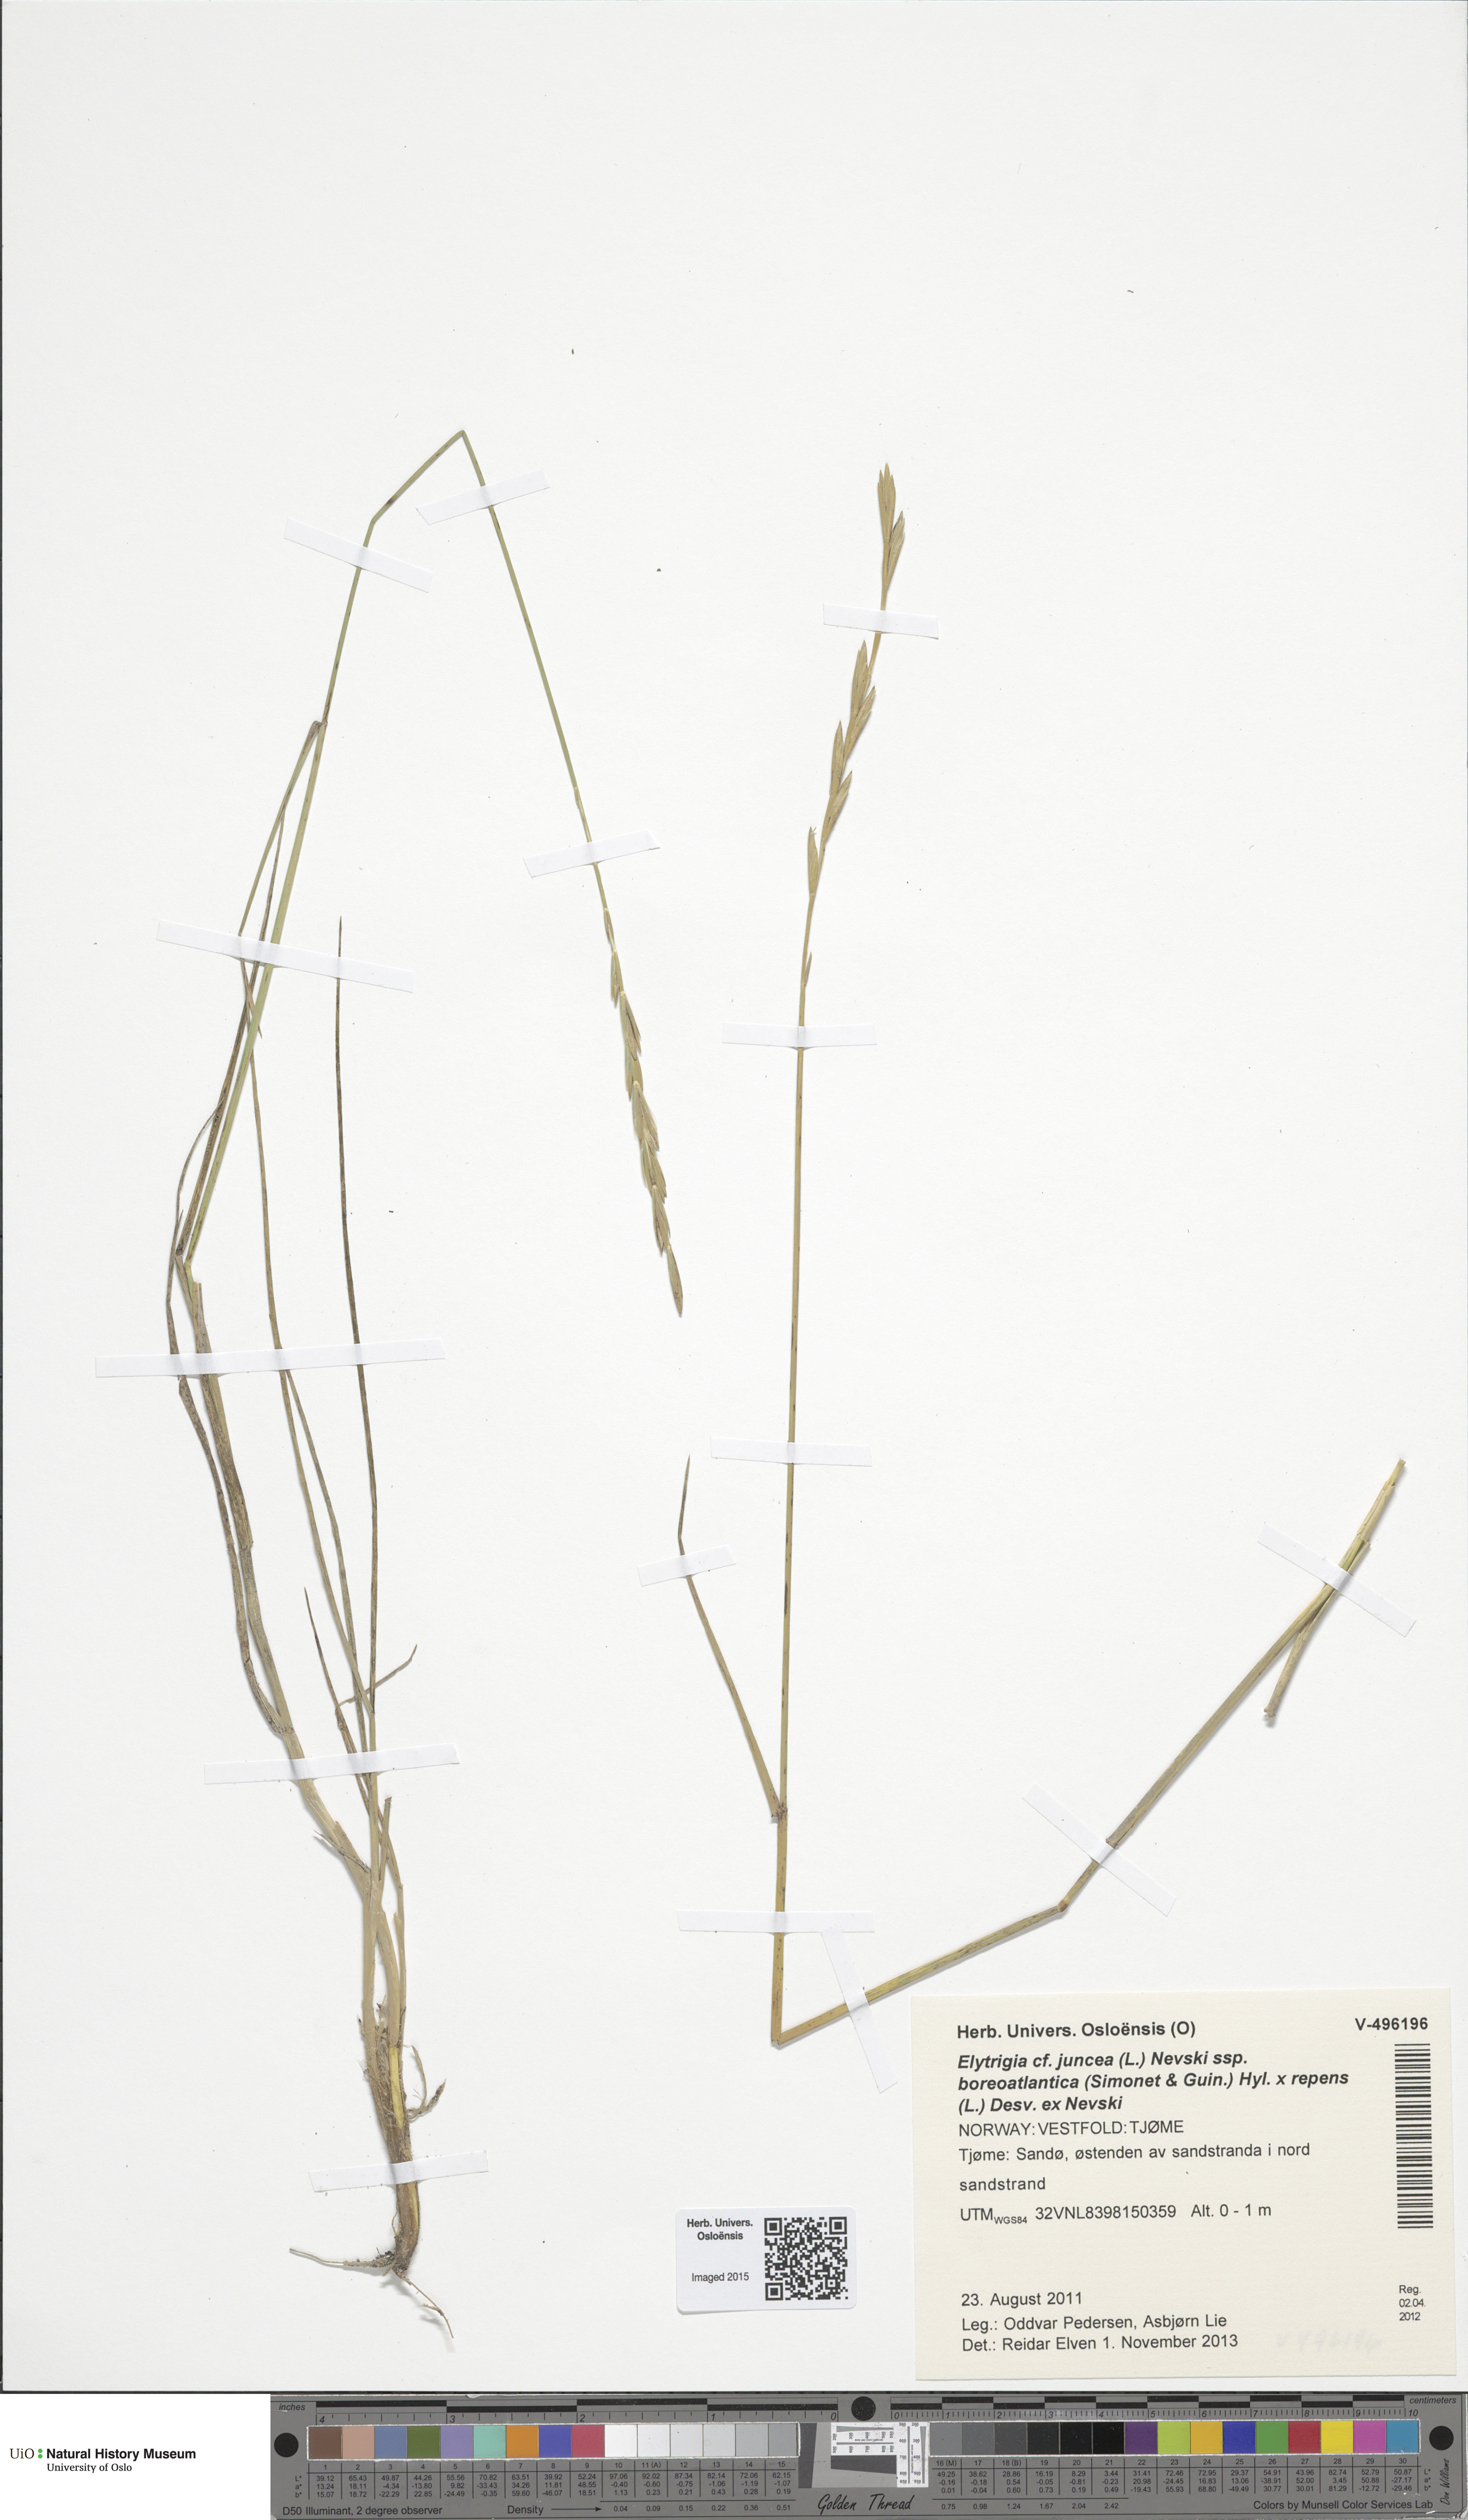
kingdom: Plantae
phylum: Tracheophyta
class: Liliopsida
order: Poales
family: Poaceae
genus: Elymus
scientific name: Elymus
